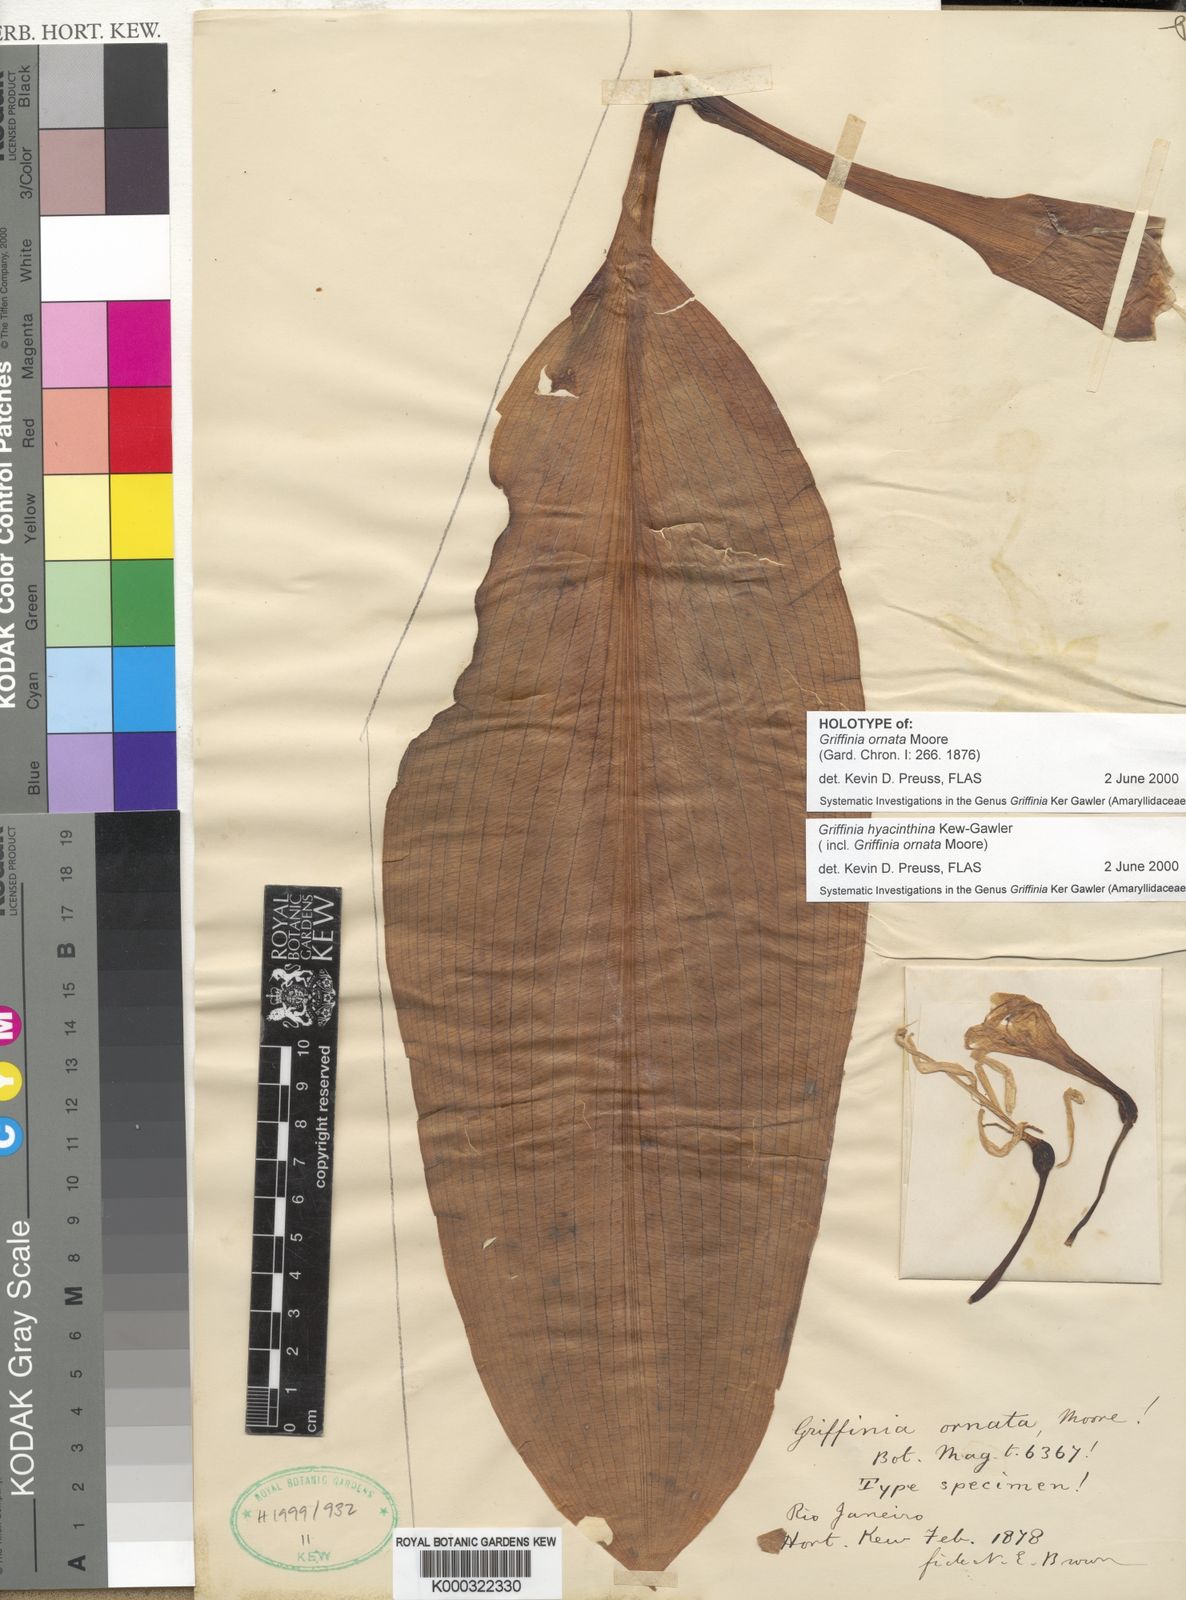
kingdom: Plantae
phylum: Tracheophyta
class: Liliopsida
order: Asparagales
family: Amaryllidaceae
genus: Griffinia
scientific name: Griffinia hyacinthina
